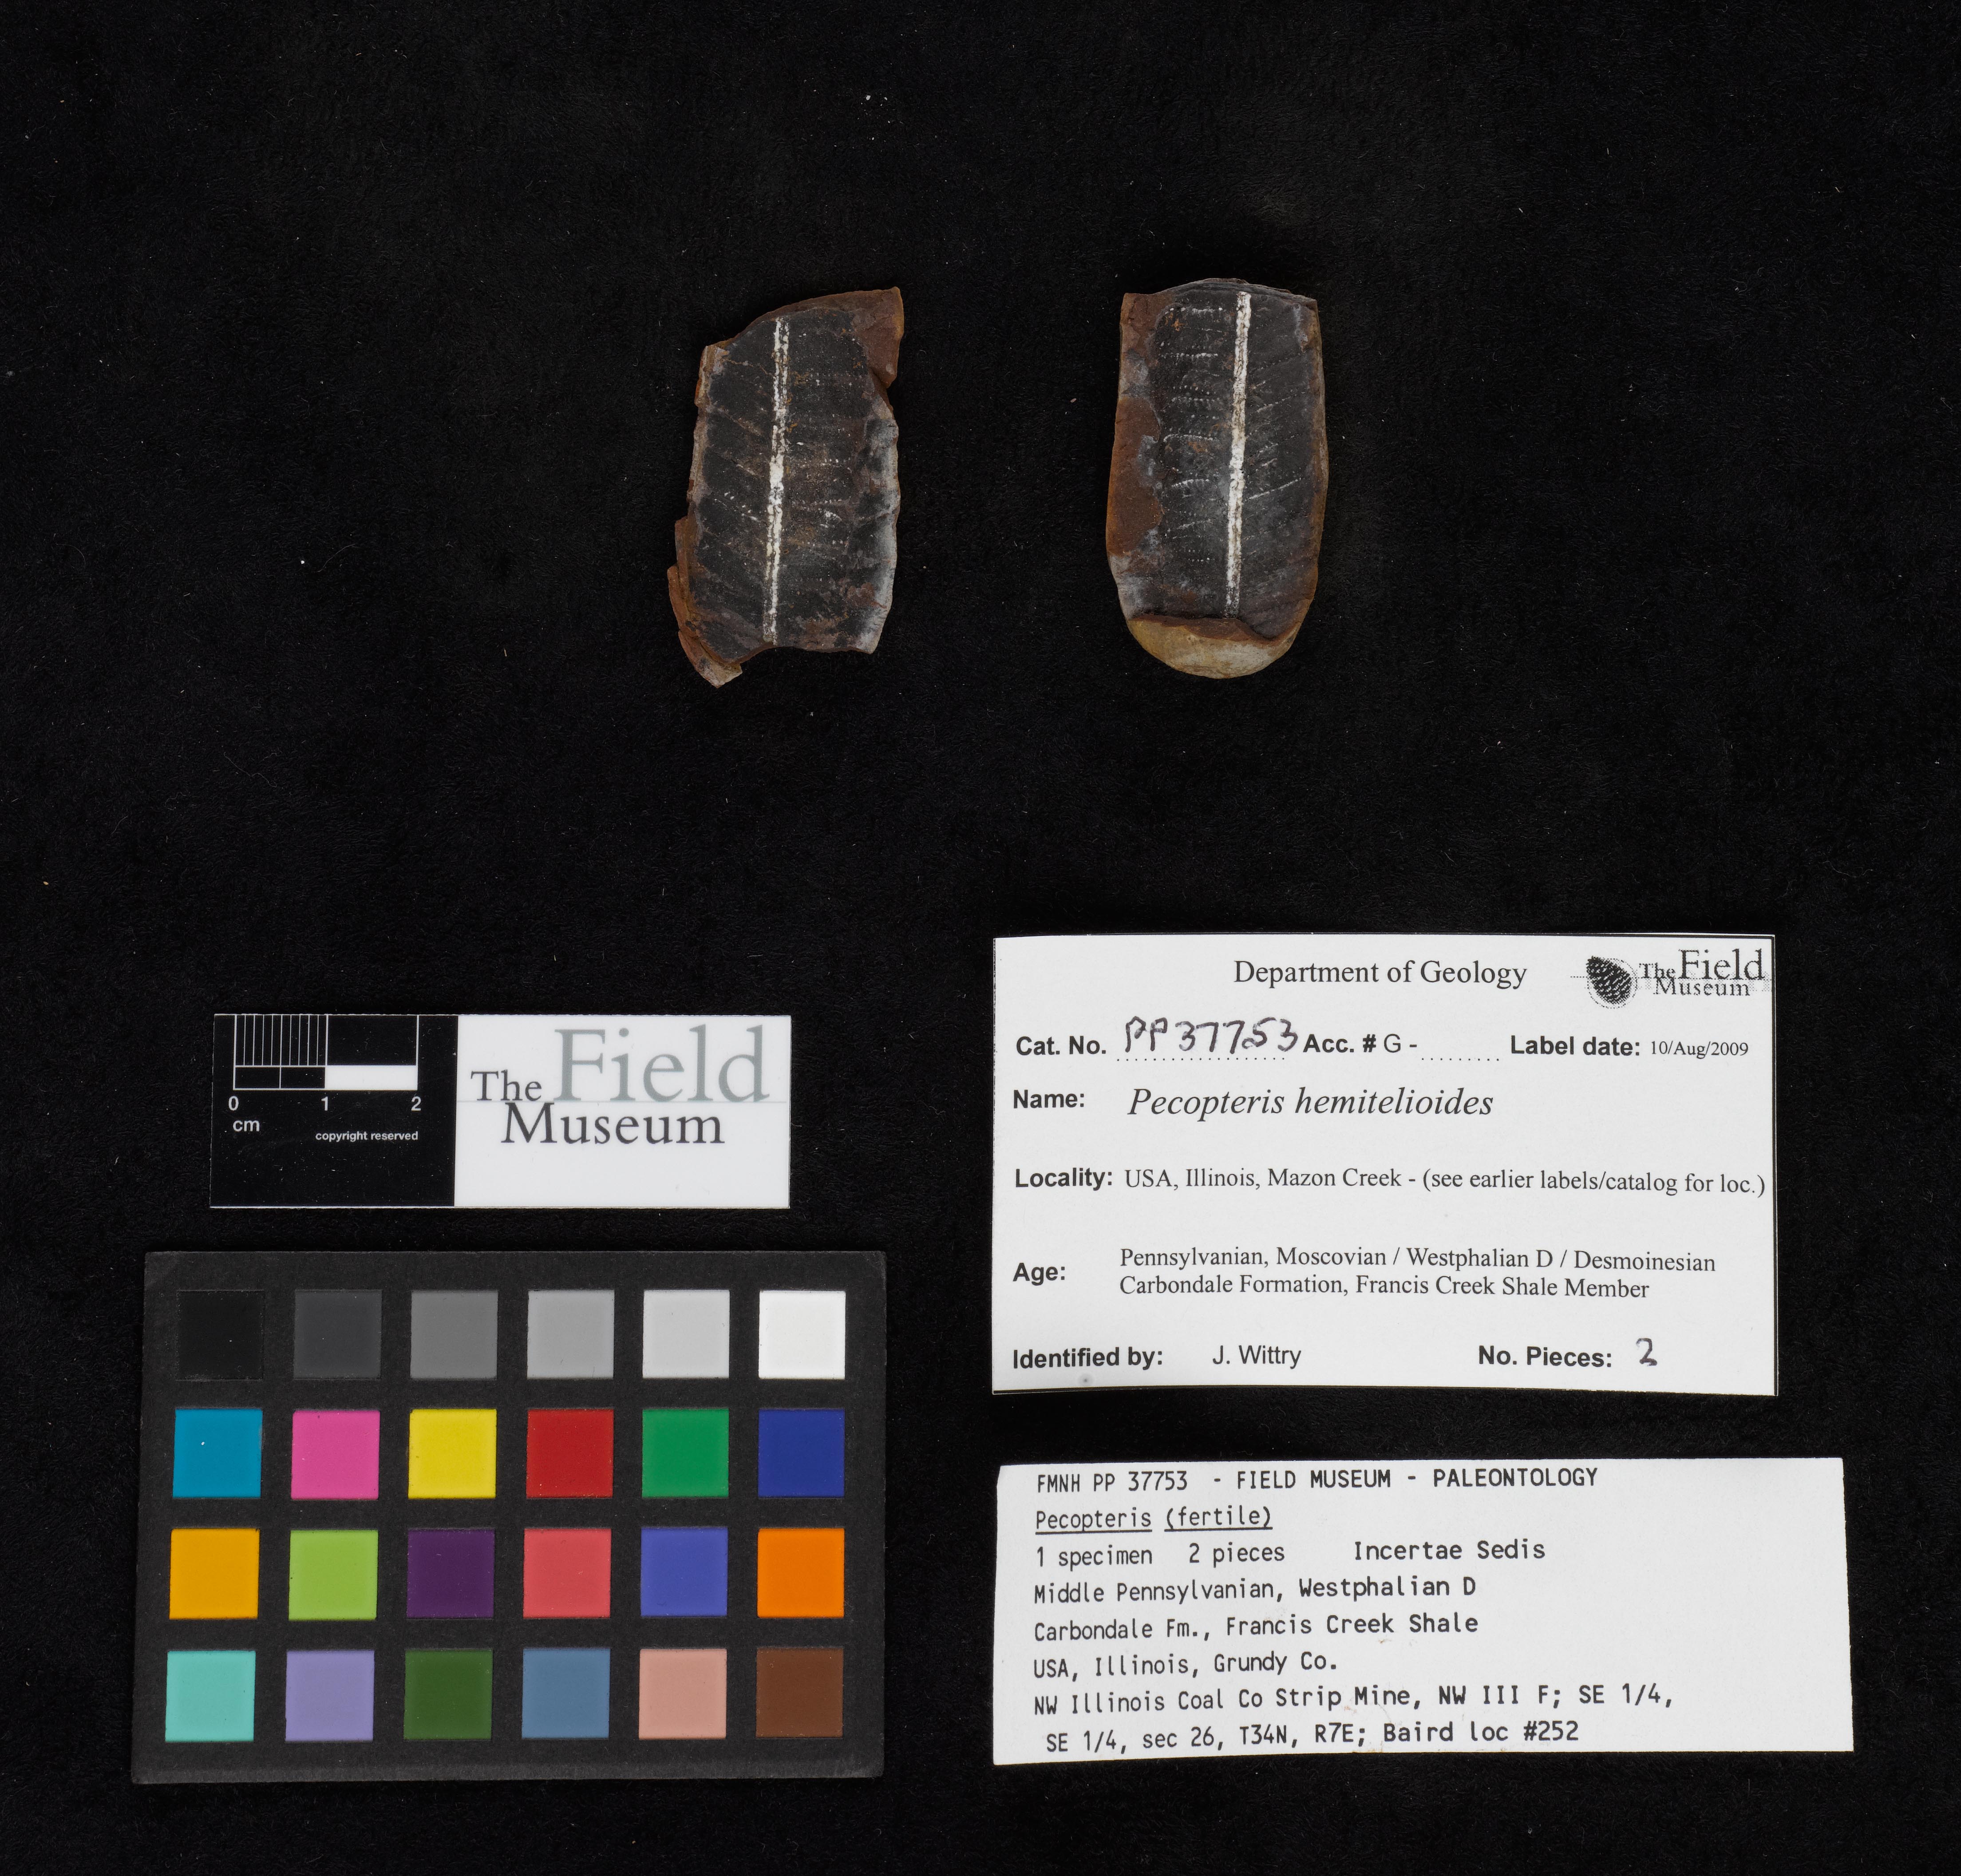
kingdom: Plantae
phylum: Tracheophyta
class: Polypodiopsida
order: Marattiales
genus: Cyathocarpus
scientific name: Cyathocarpus
